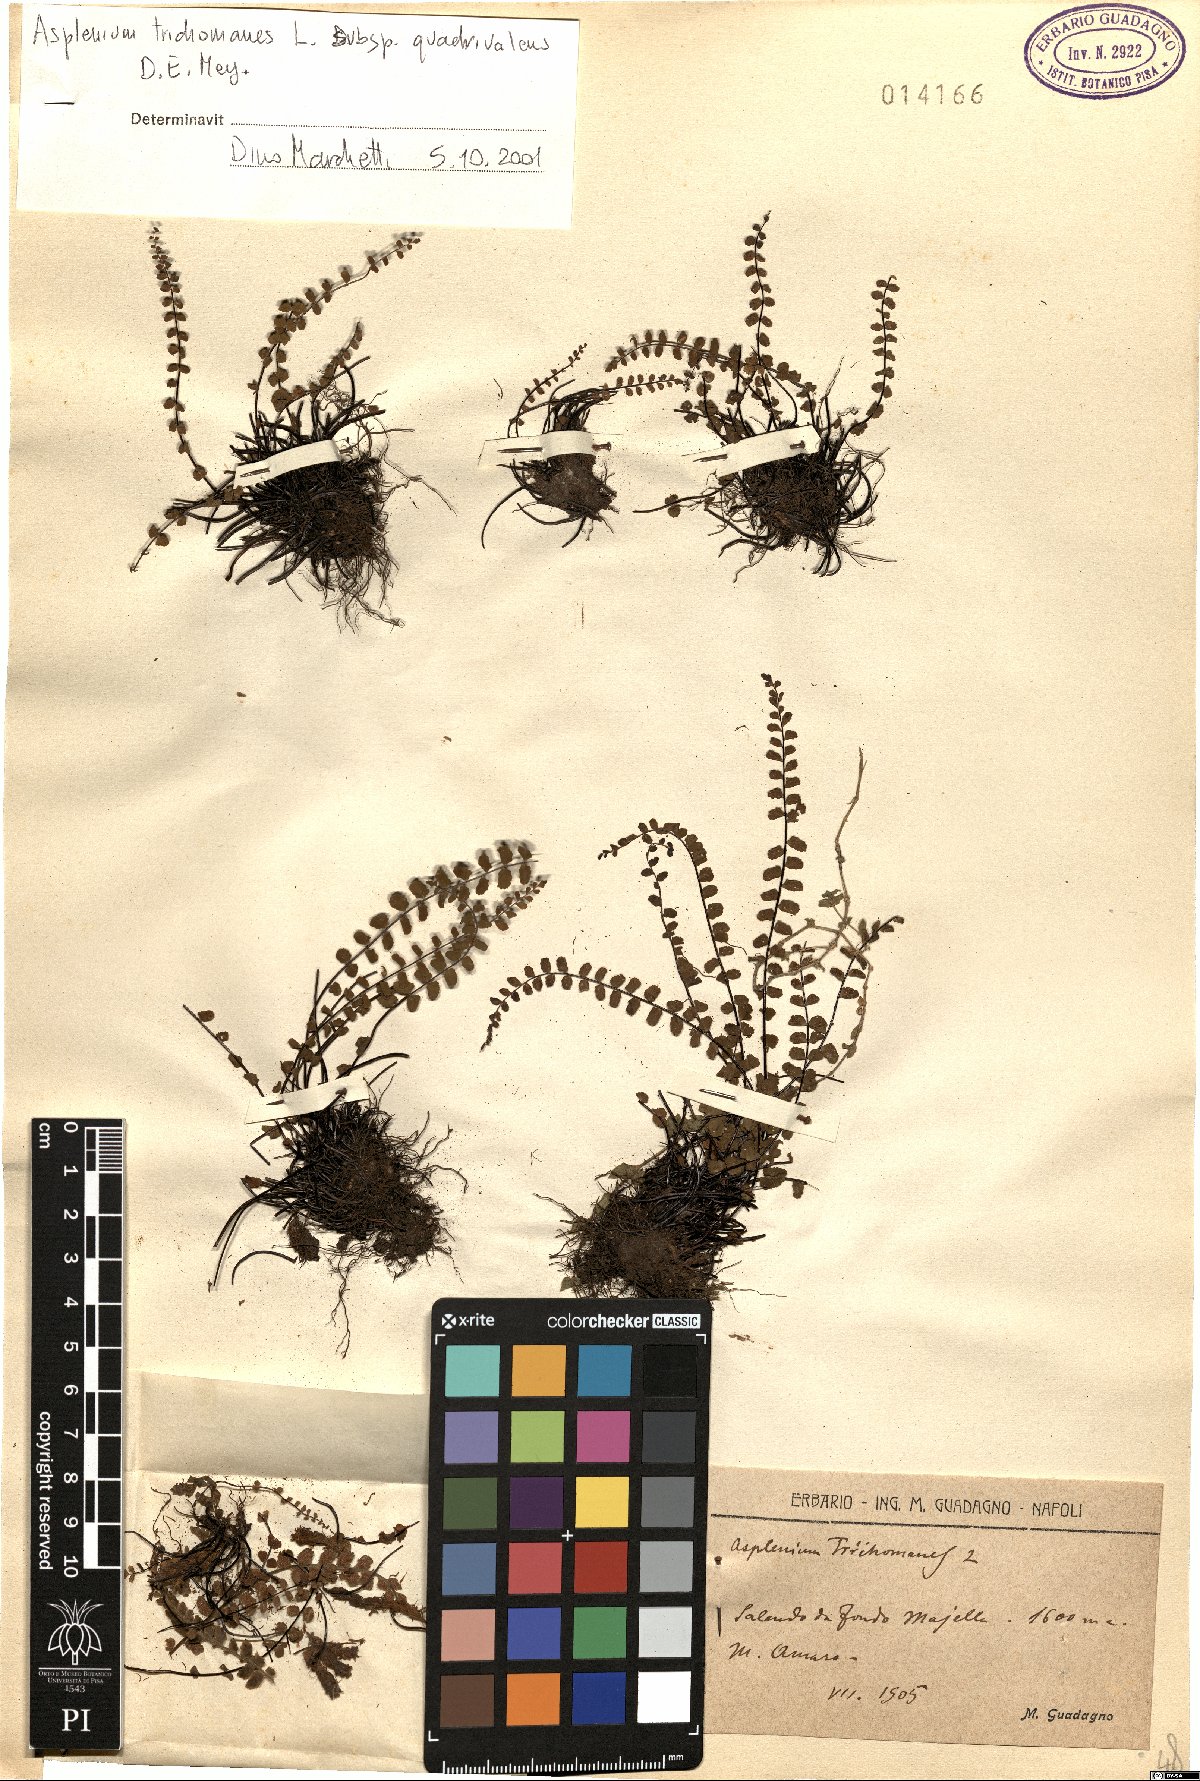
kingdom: Plantae
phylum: Tracheophyta
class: Polypodiopsida
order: Polypodiales
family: Aspleniaceae
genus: Asplenium
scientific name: Asplenium quadrivalens
